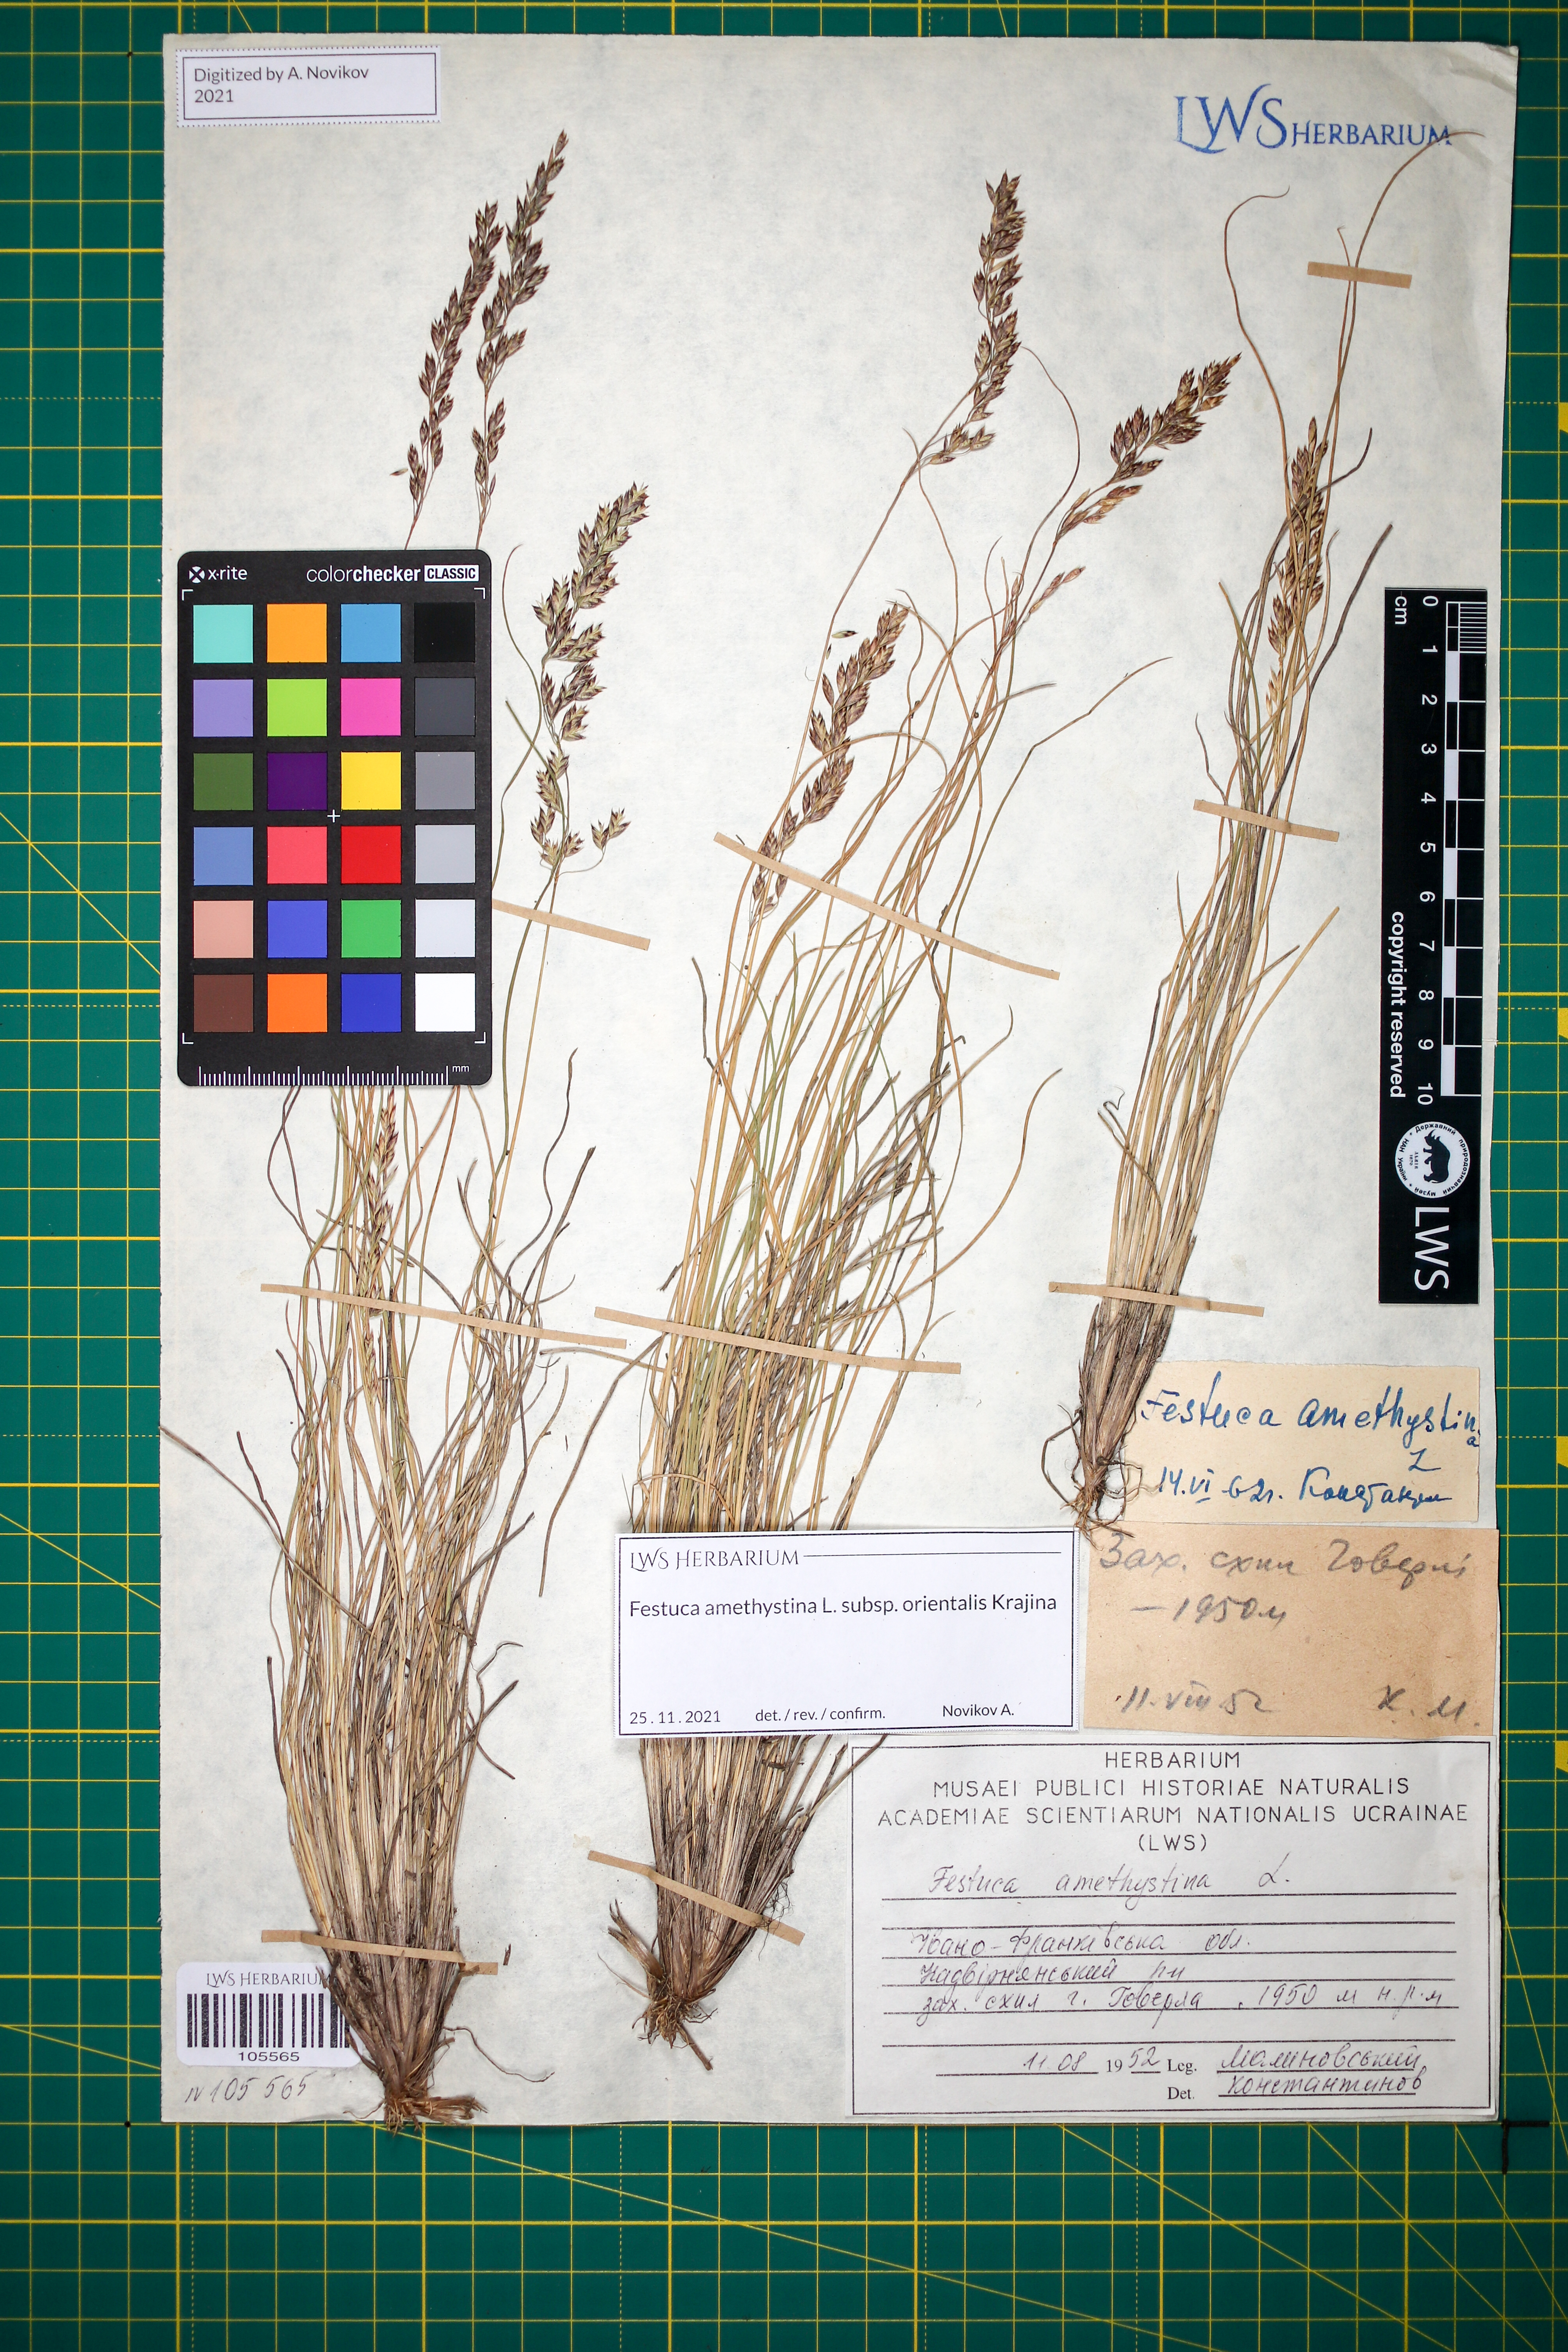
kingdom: Plantae
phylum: Tracheophyta
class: Liliopsida
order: Poales
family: Poaceae
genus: Festuca
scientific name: Festuca amethystina
